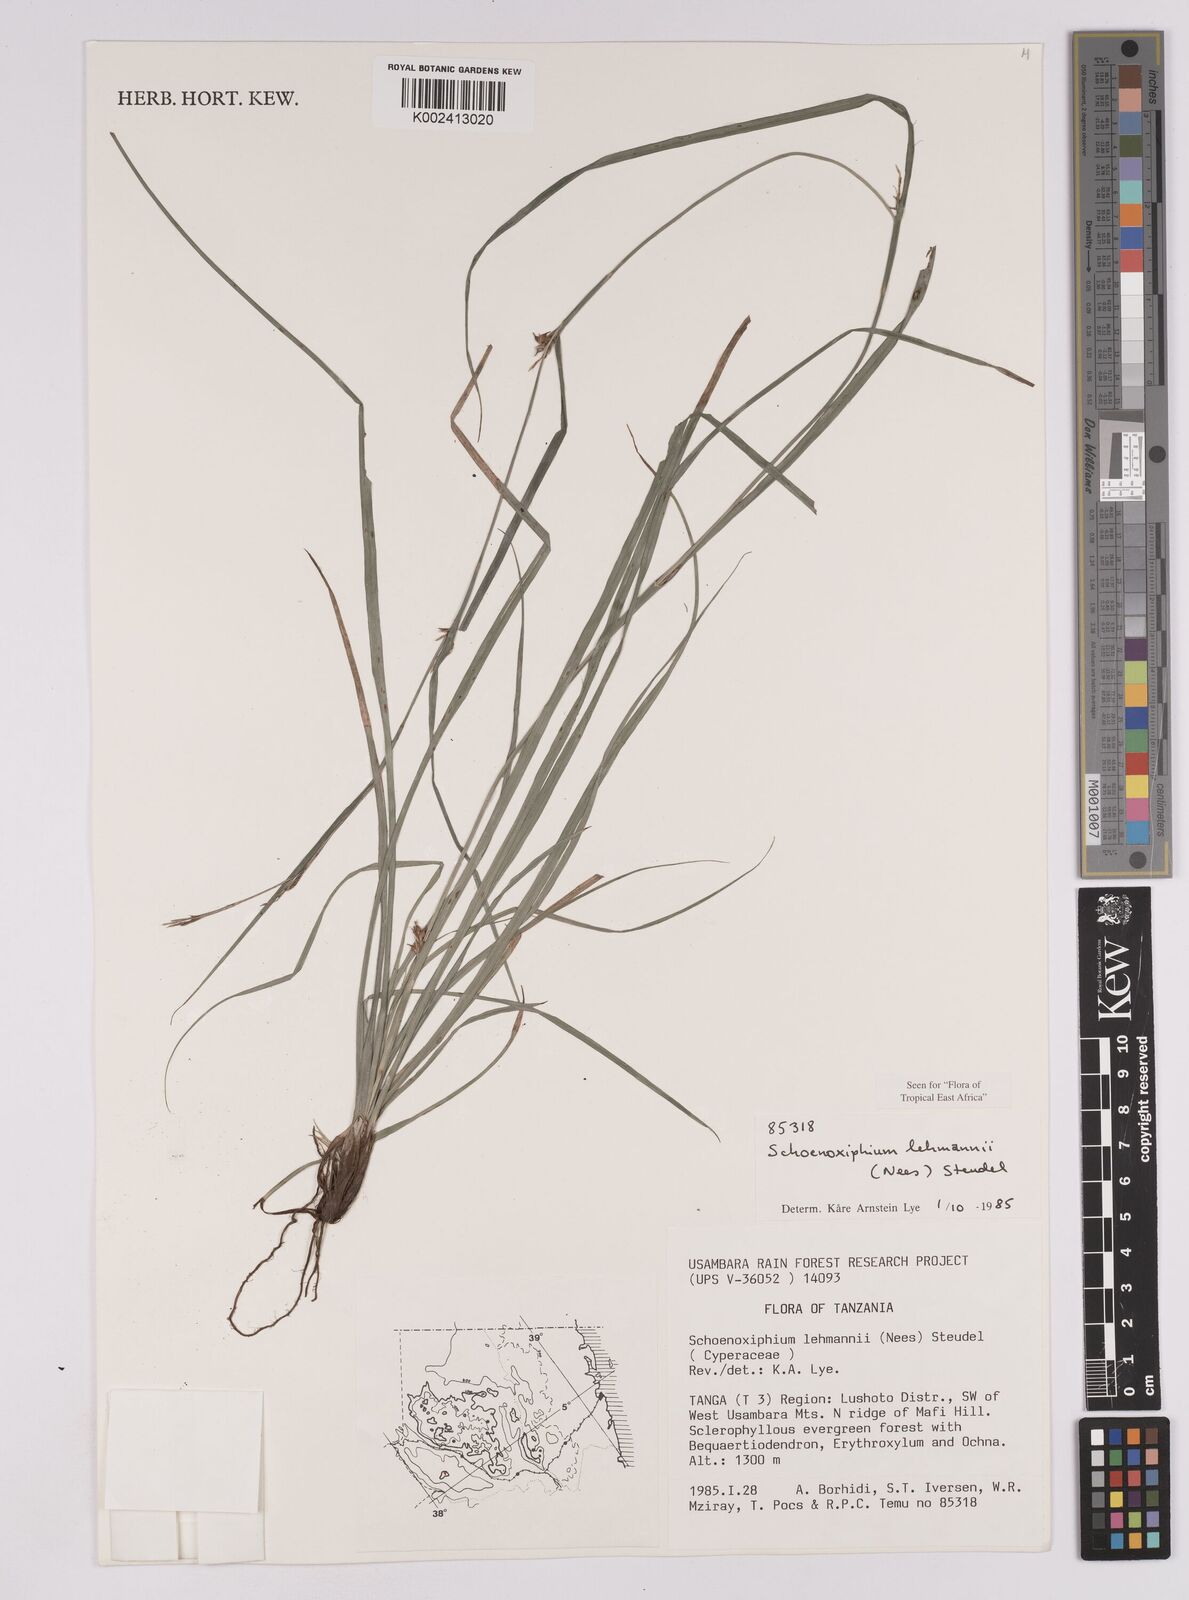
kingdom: Plantae
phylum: Tracheophyta
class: Liliopsida
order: Poales
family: Cyperaceae
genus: Carex
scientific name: Carex uhligii
